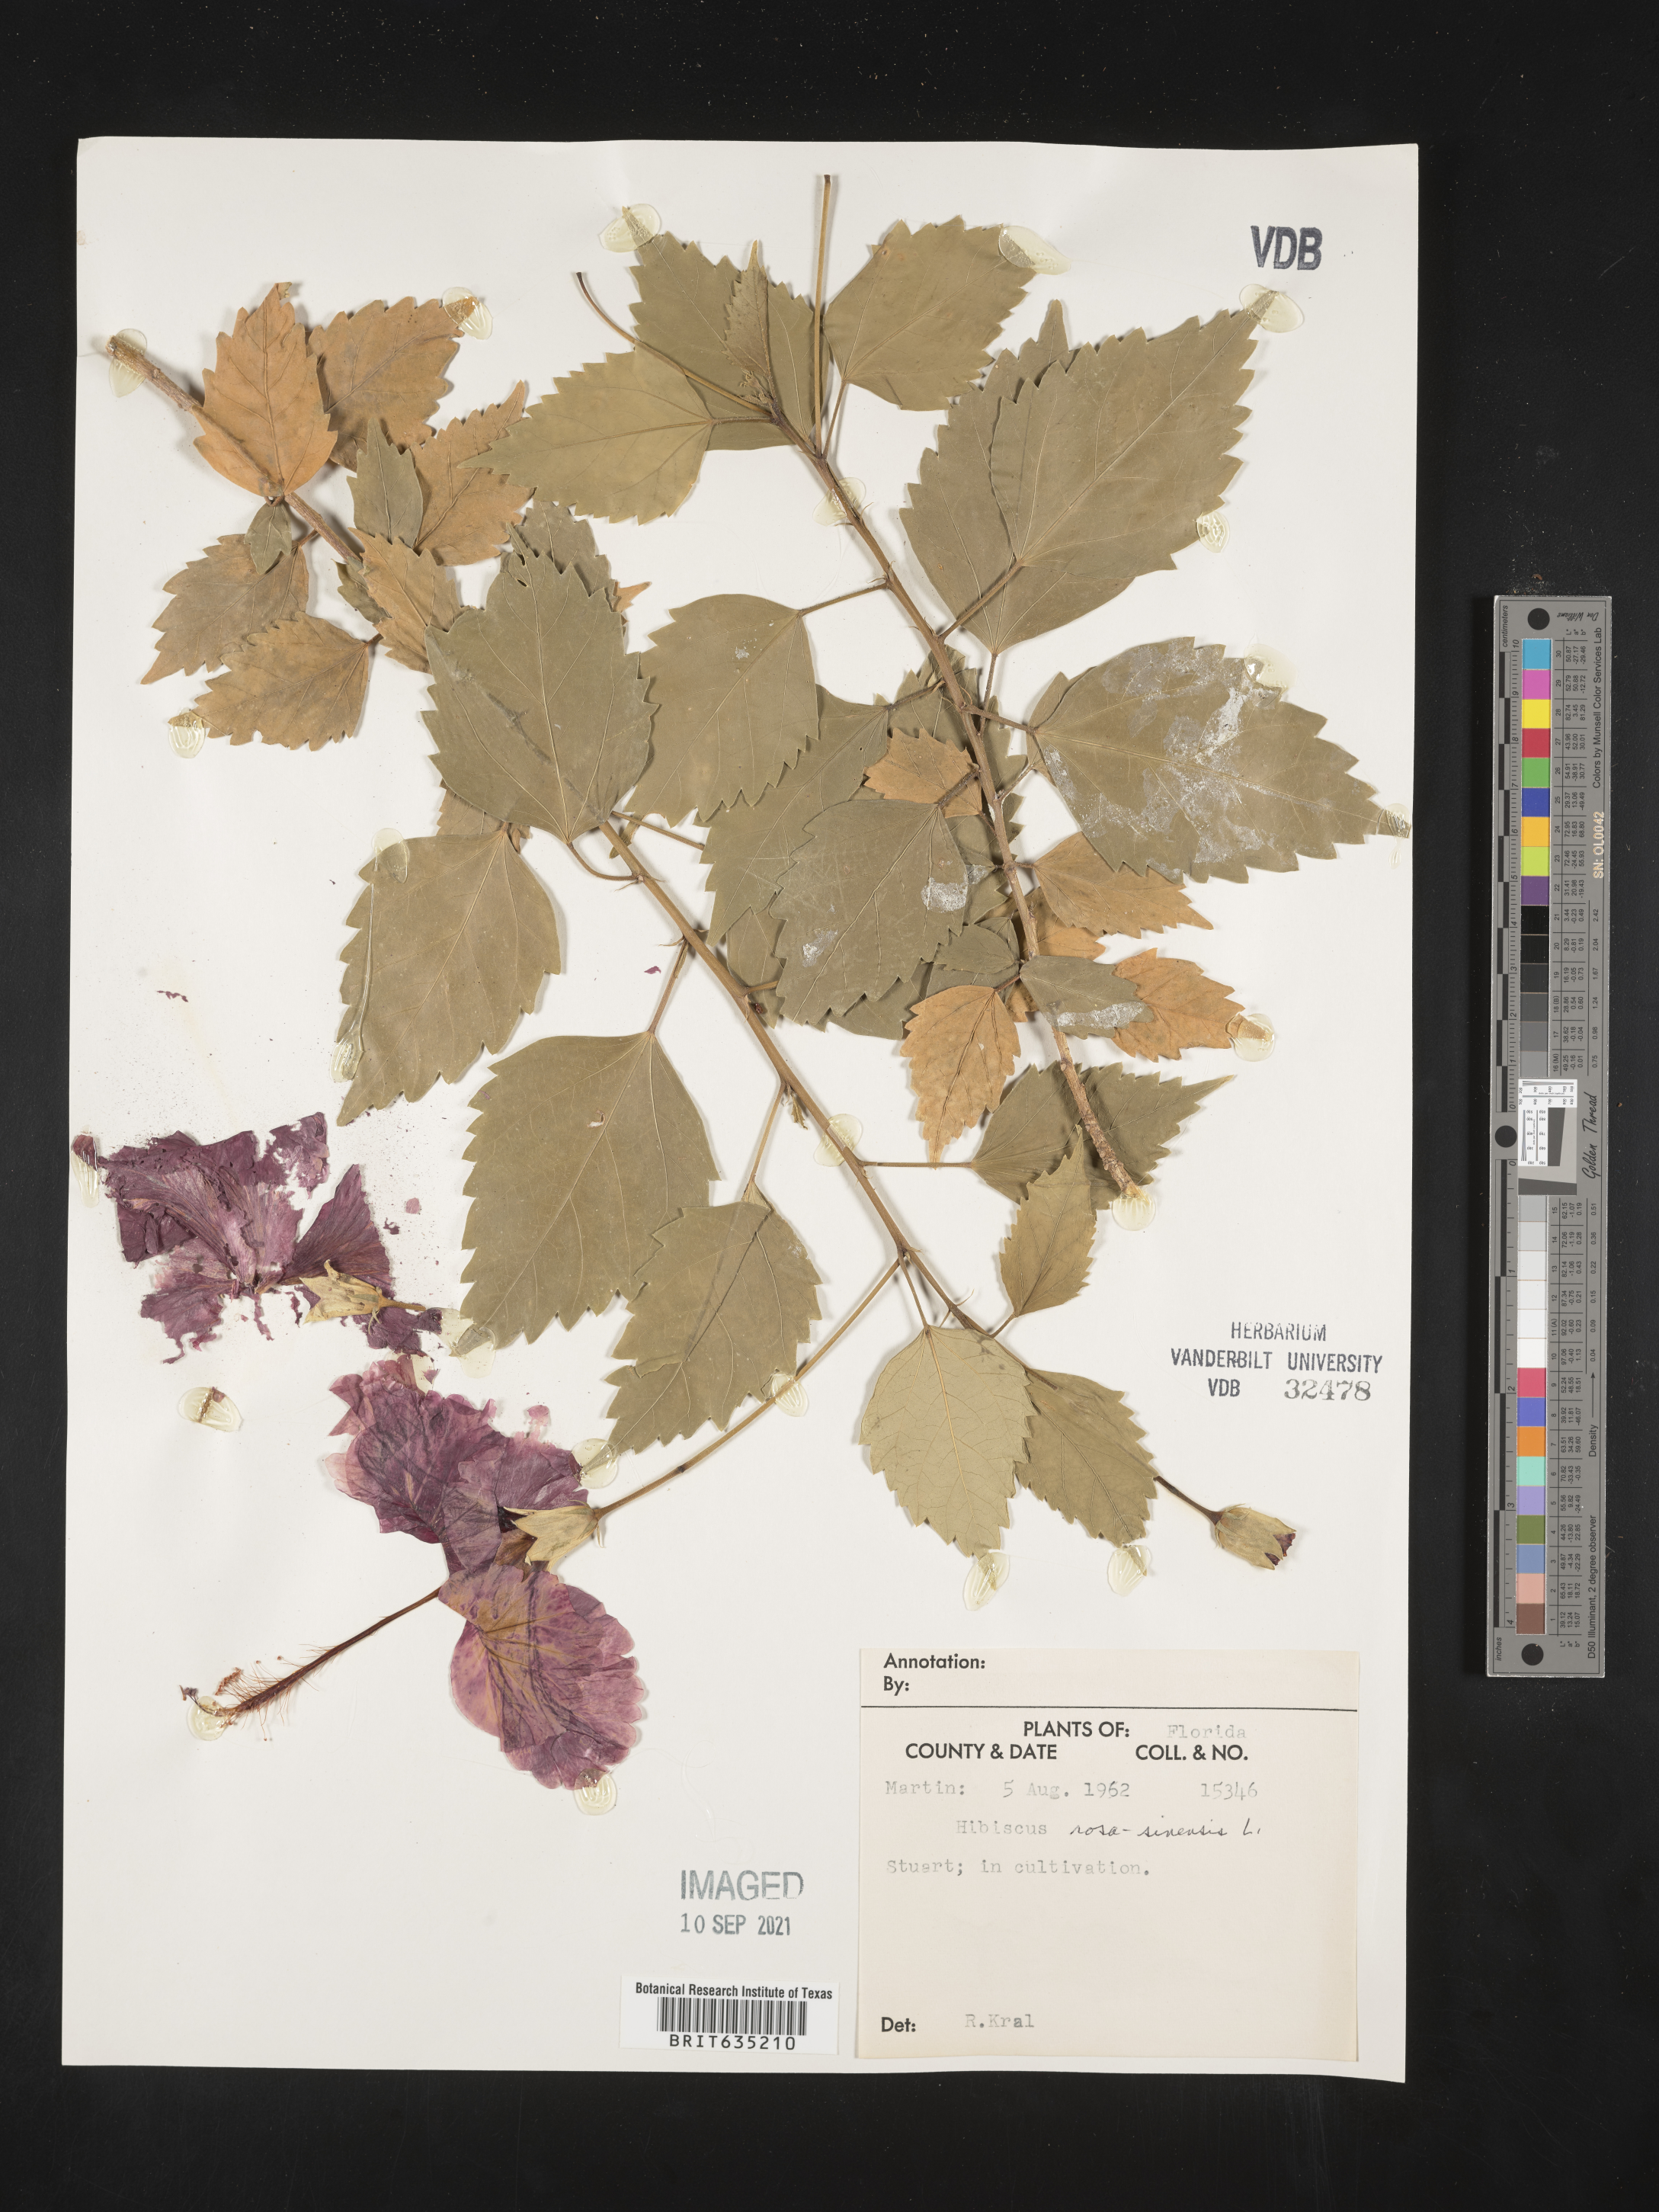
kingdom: Plantae
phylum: Tracheophyta
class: Magnoliopsida
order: Malvales
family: Malvaceae
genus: Hibiscus
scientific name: Hibiscus
